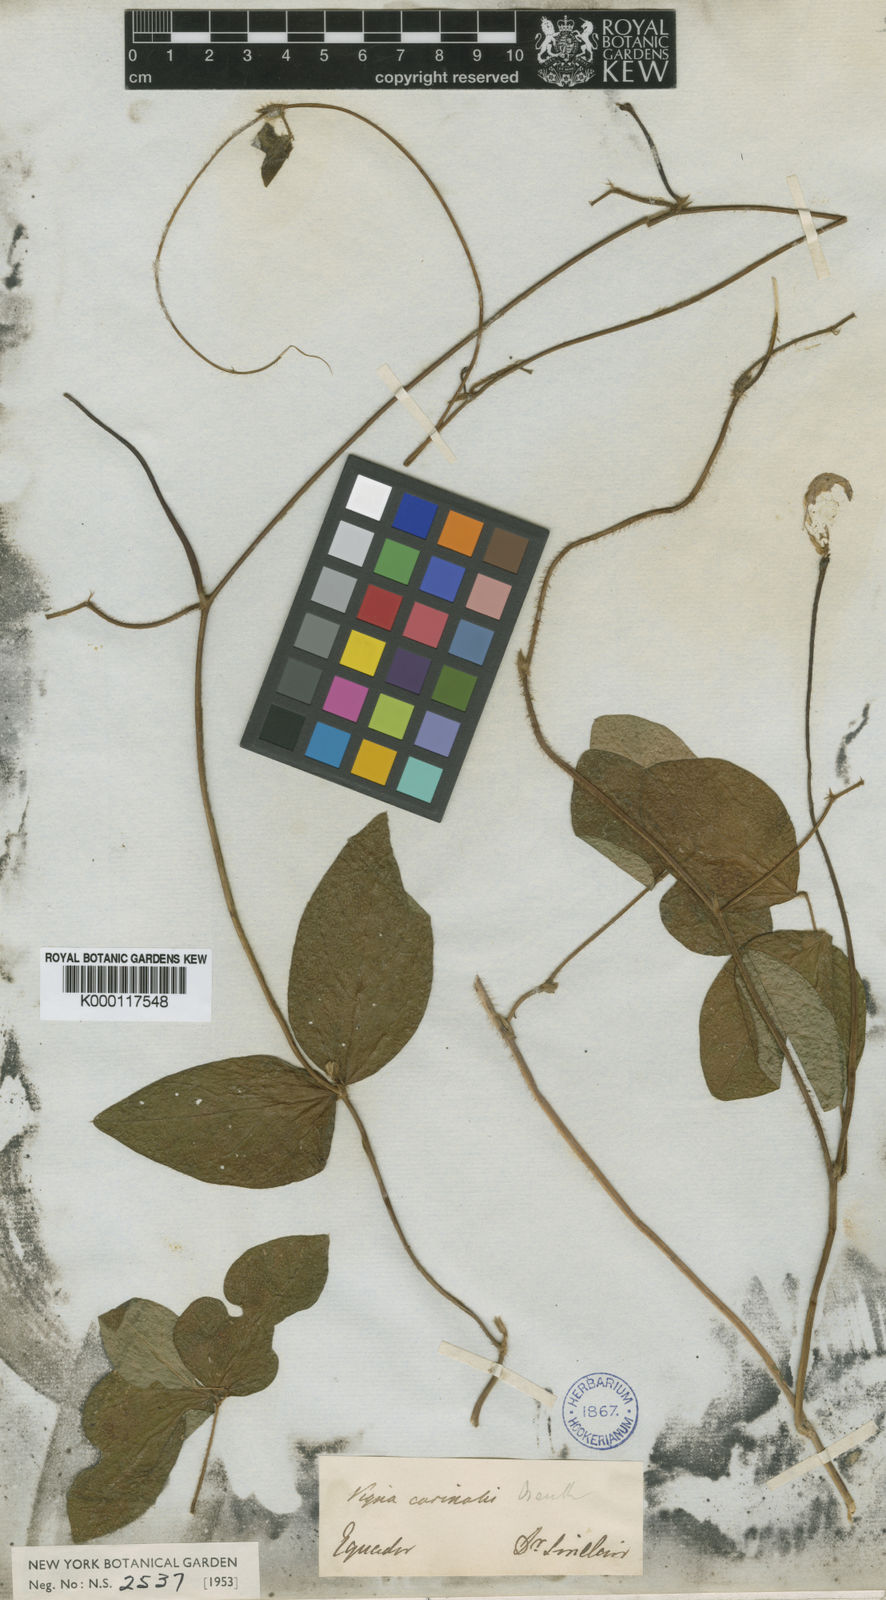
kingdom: Plantae
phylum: Tracheophyta
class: Magnoliopsida
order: Fabales
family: Fabaceae
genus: Vigna
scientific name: Vigna vexillata
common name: Zombi pea
